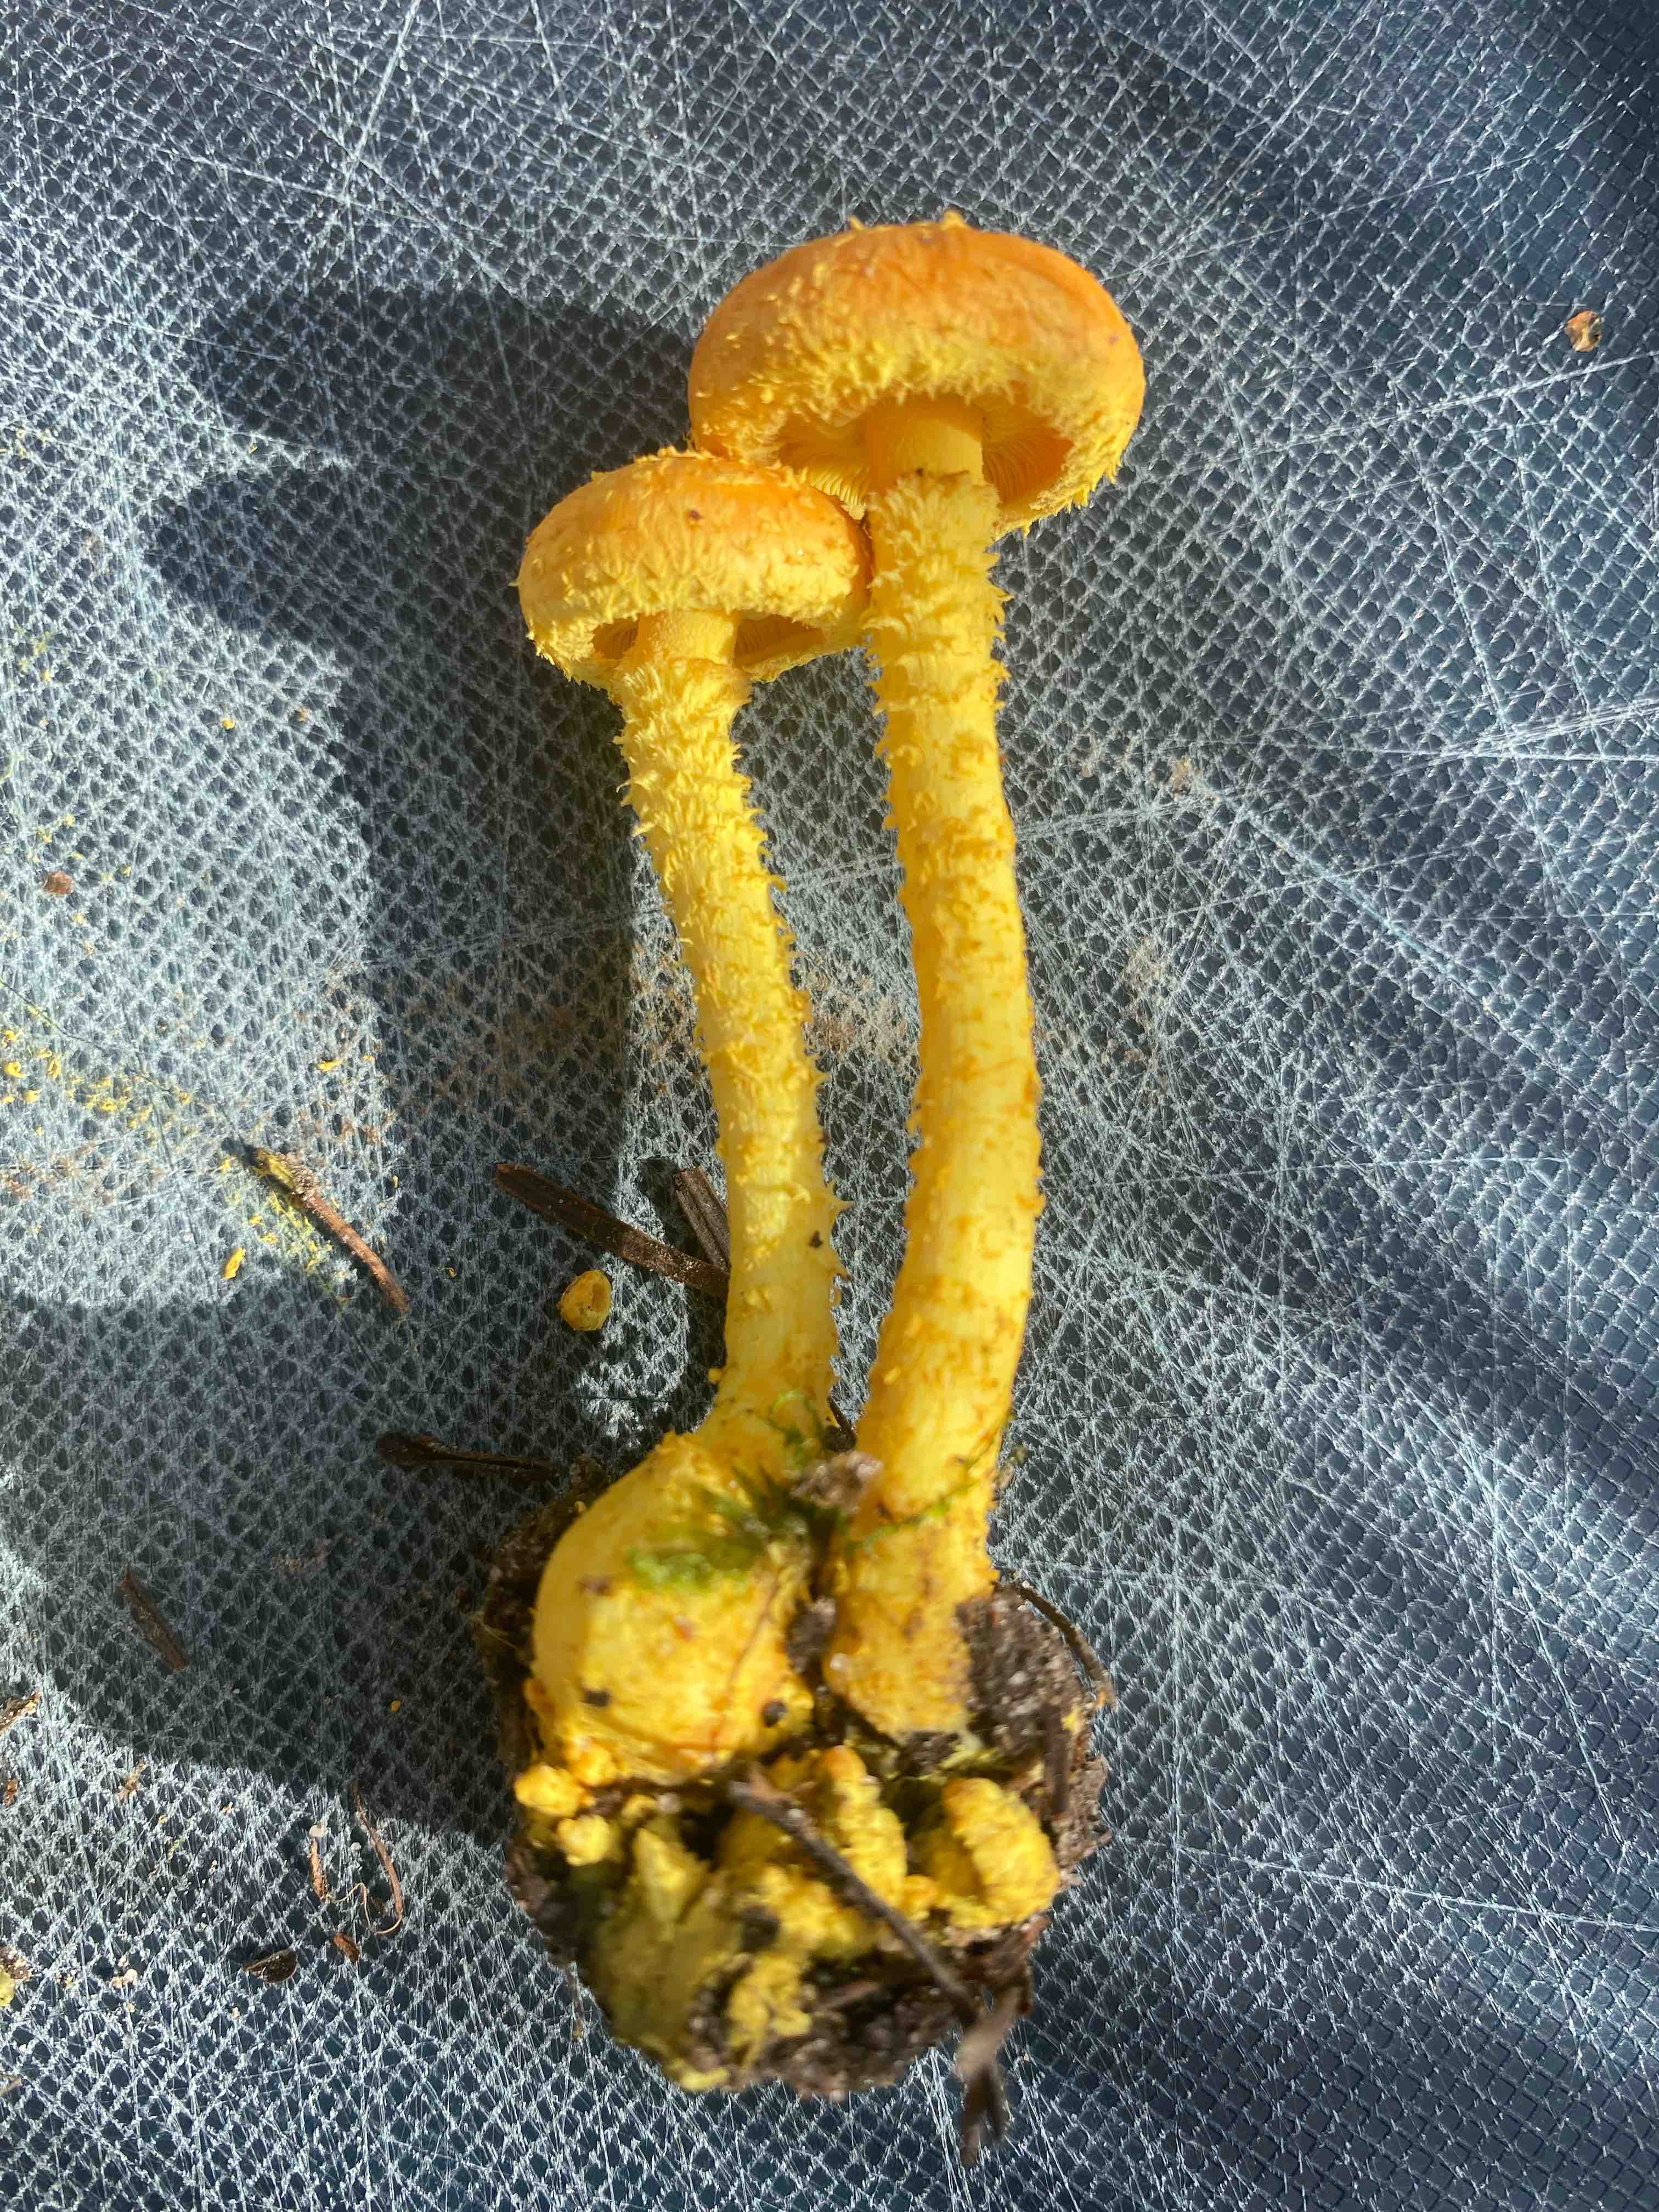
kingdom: Fungi
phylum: Basidiomycota
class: Agaricomycetes
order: Agaricales
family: Strophariaceae
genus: Pholiota
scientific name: Pholiota flammans
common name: flamme-skælhat
